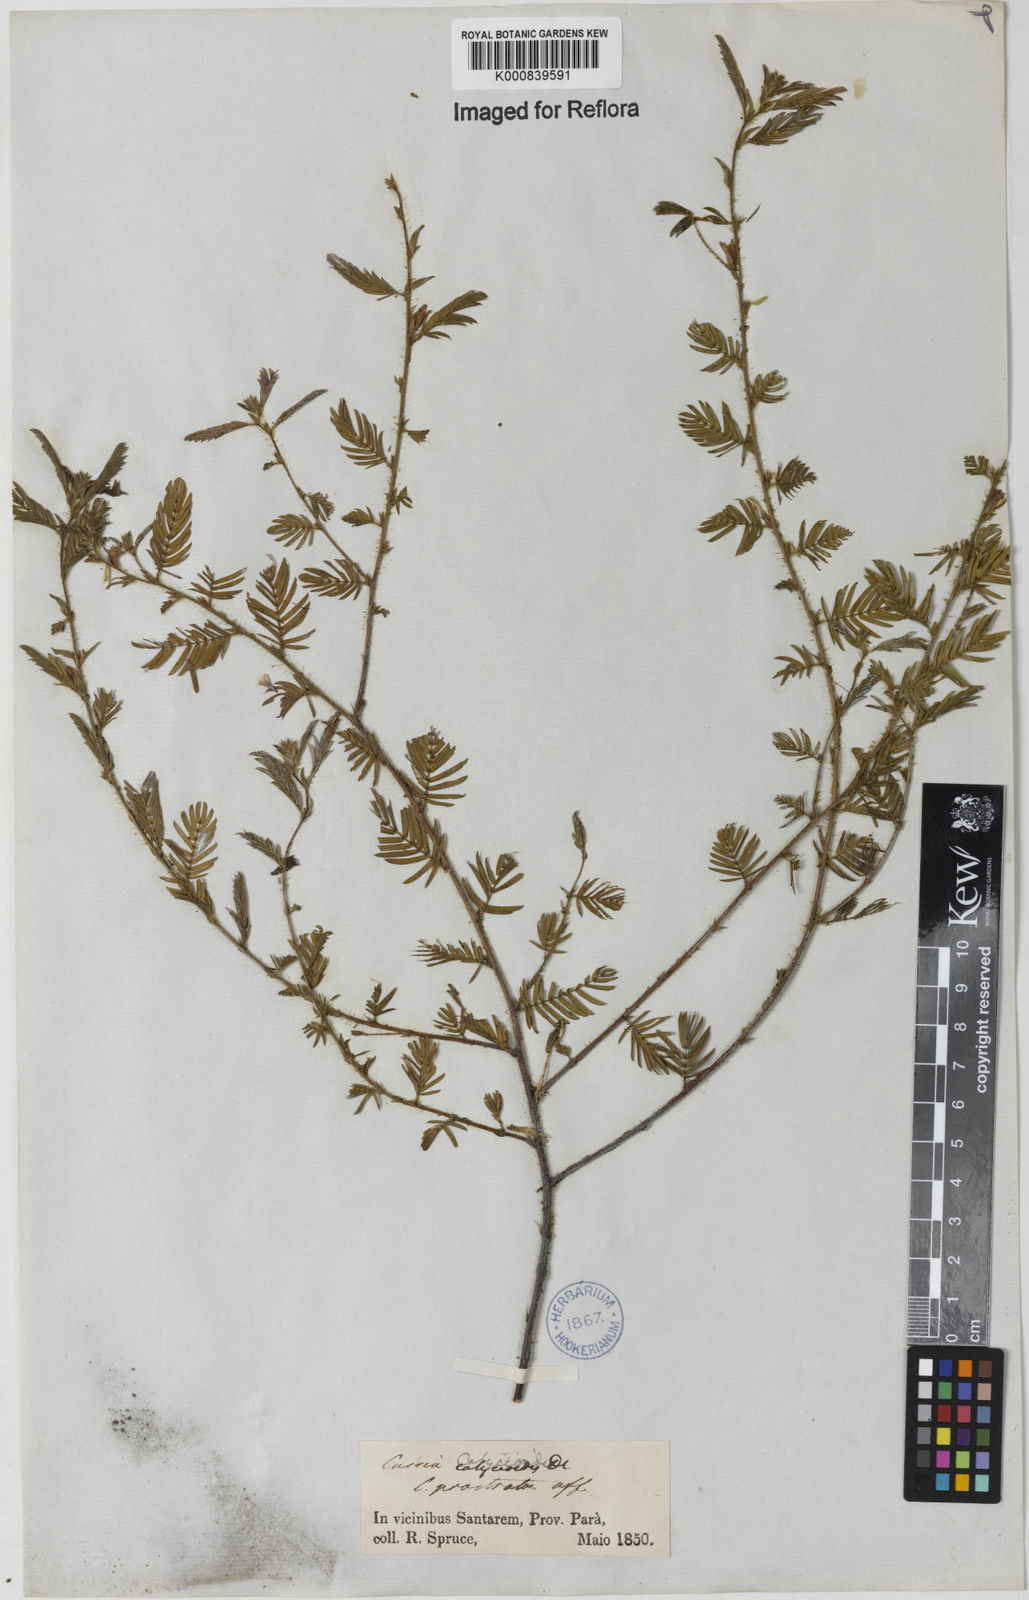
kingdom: Plantae
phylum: Tracheophyta
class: Magnoliopsida
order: Fabales
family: Fabaceae
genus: Chamaecrista
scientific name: Chamaecrista calycioides
